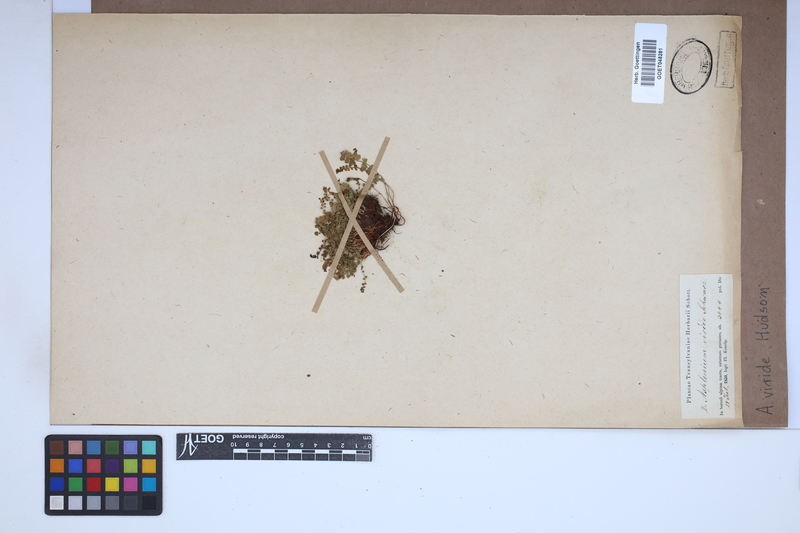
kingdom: Plantae
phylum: Tracheophyta
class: Polypodiopsida
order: Polypodiales
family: Aspleniaceae
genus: Asplenium
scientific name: Asplenium viride
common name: Green spleenwort
